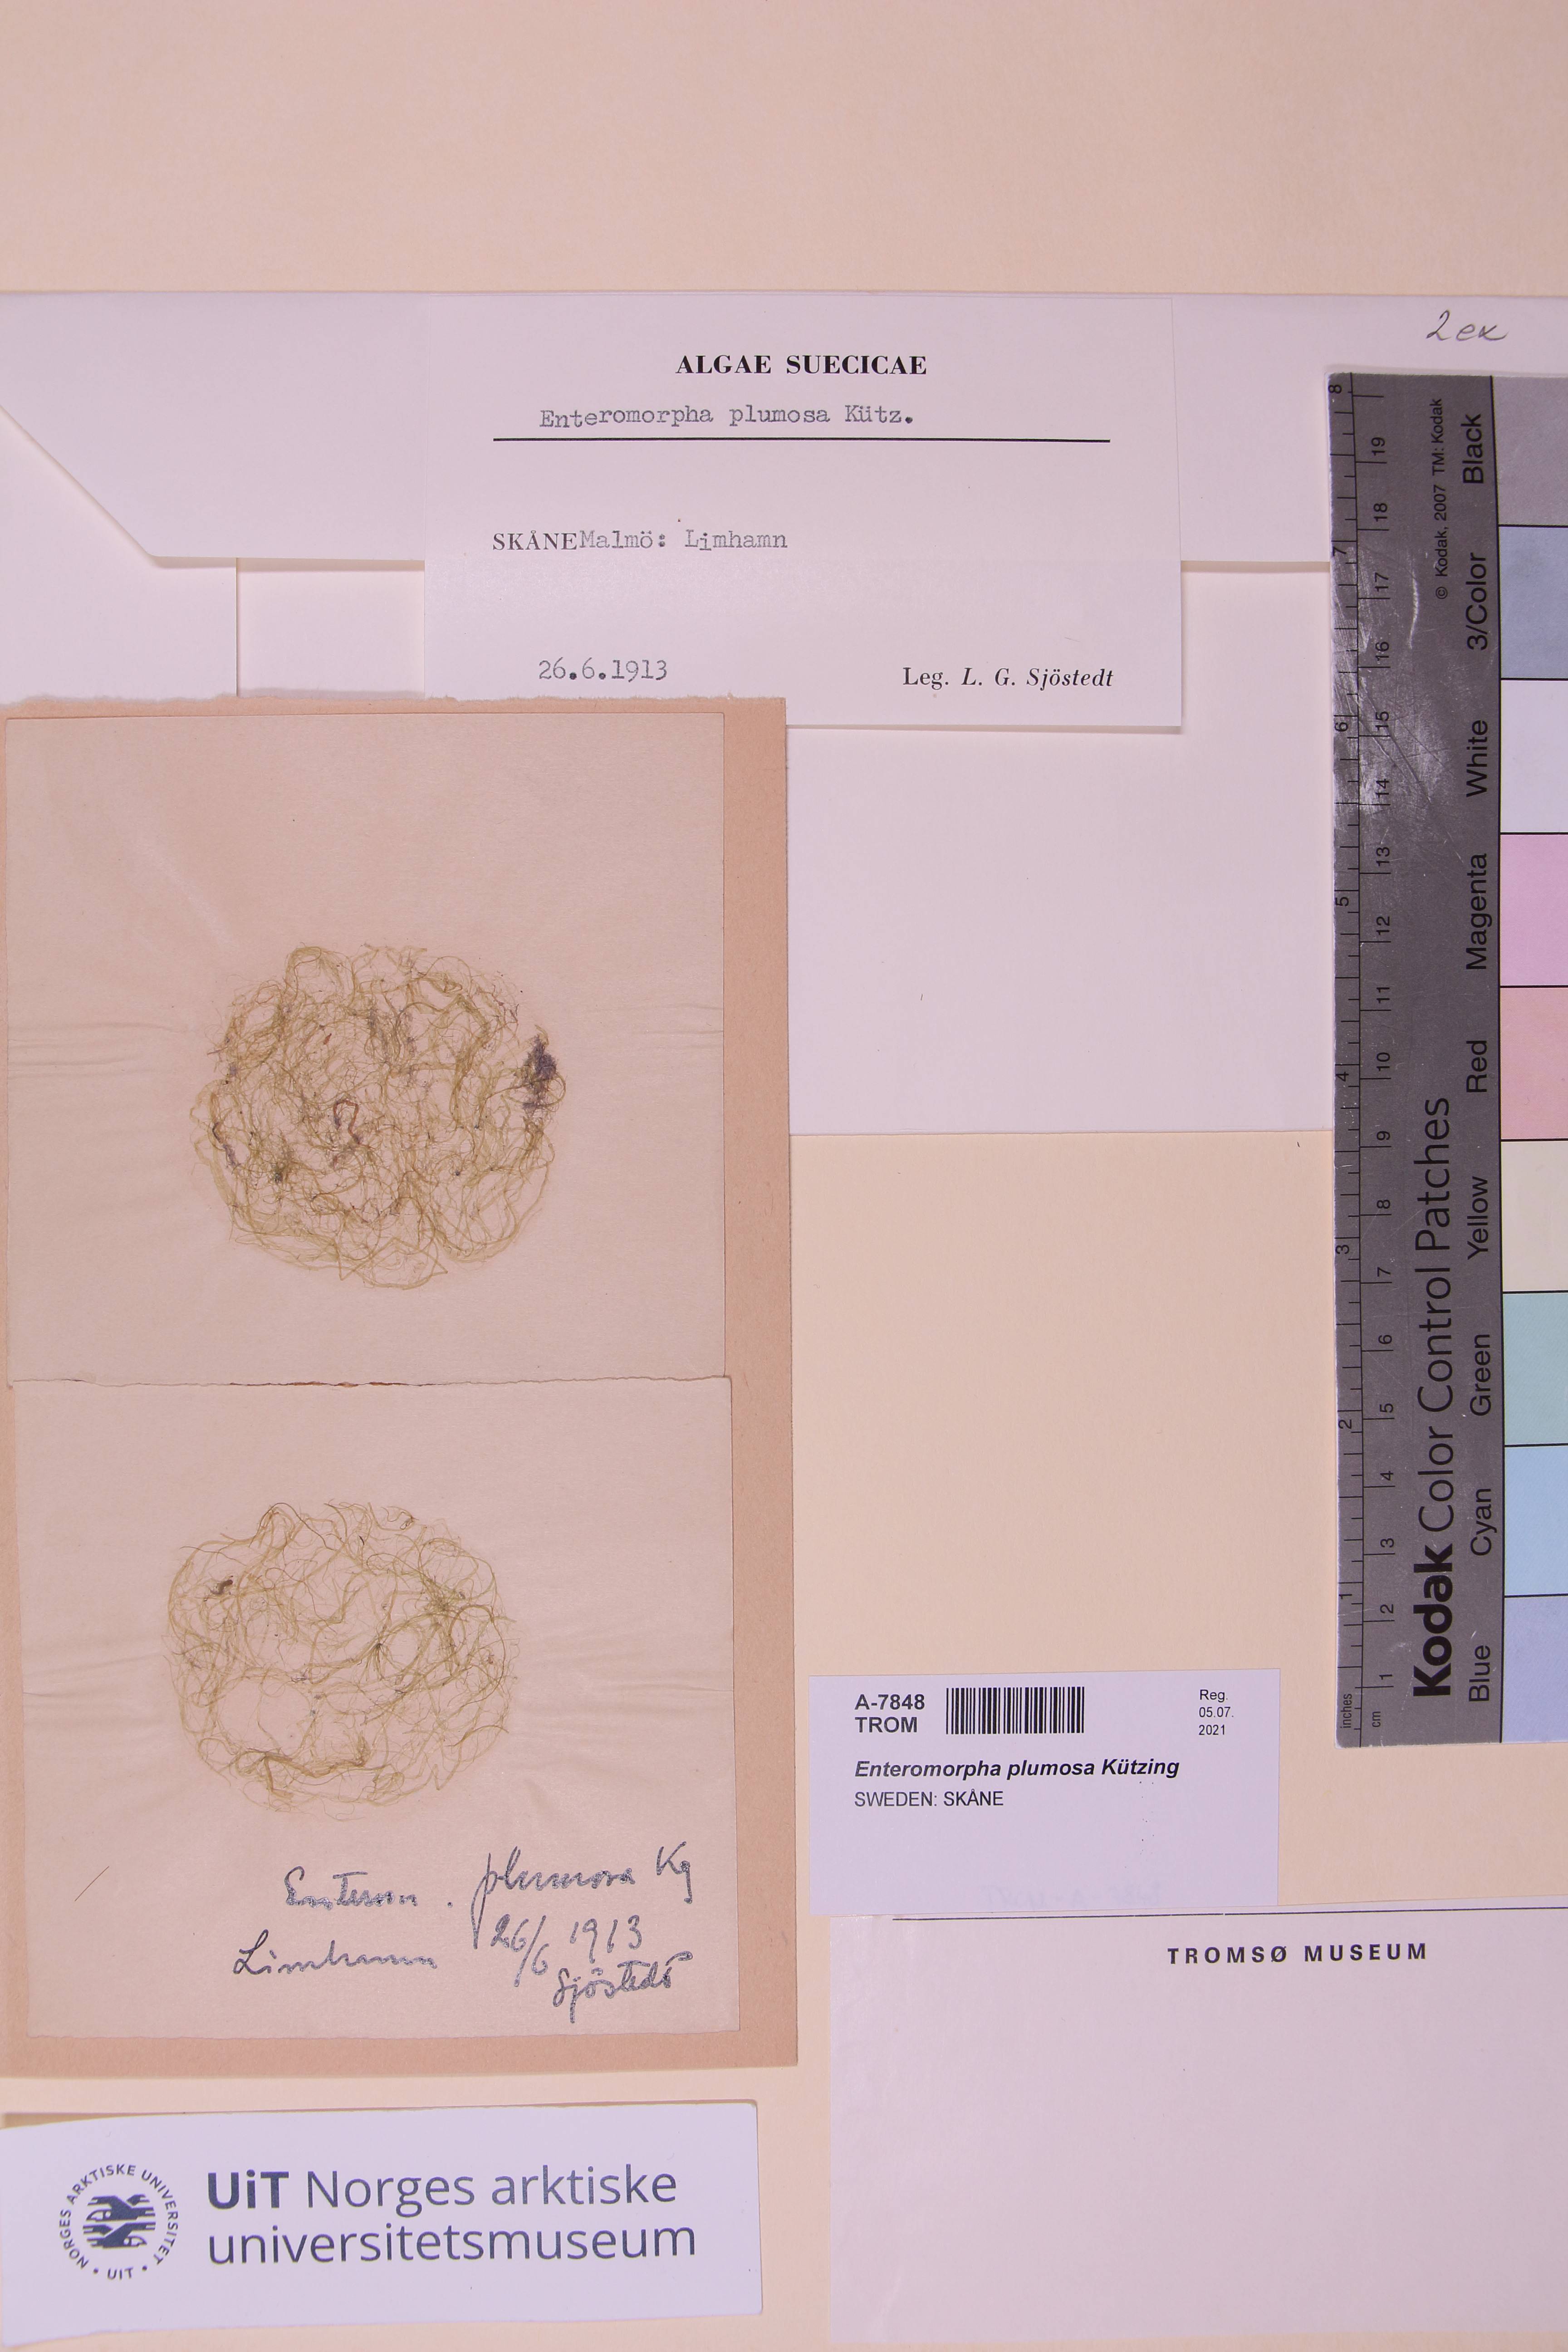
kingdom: Plantae
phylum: Chlorophyta
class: Ulvophyceae
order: Ulvales
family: Ulvaceae
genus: Ulva
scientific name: Ulva paradoxa
